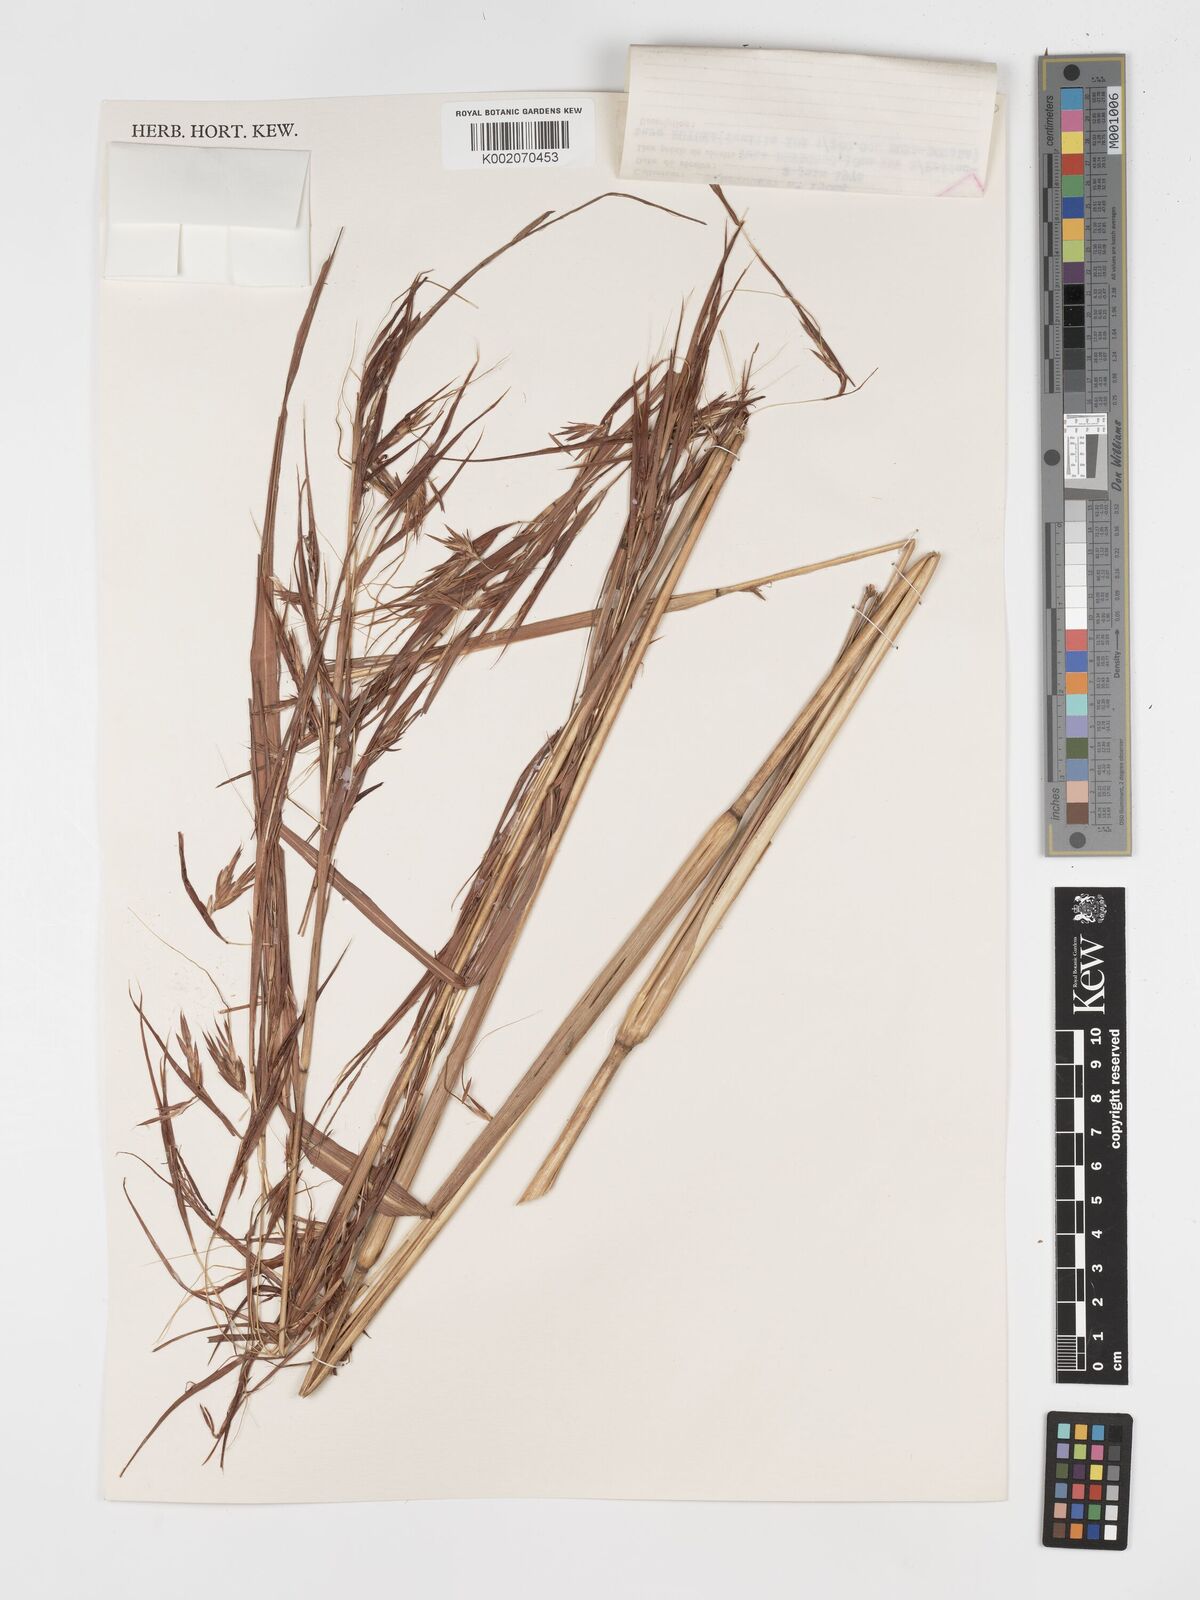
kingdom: Plantae
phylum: Tracheophyta
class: Liliopsida
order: Poales
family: Poaceae
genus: Hyparrhenia
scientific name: Hyparrhenia diplandra
